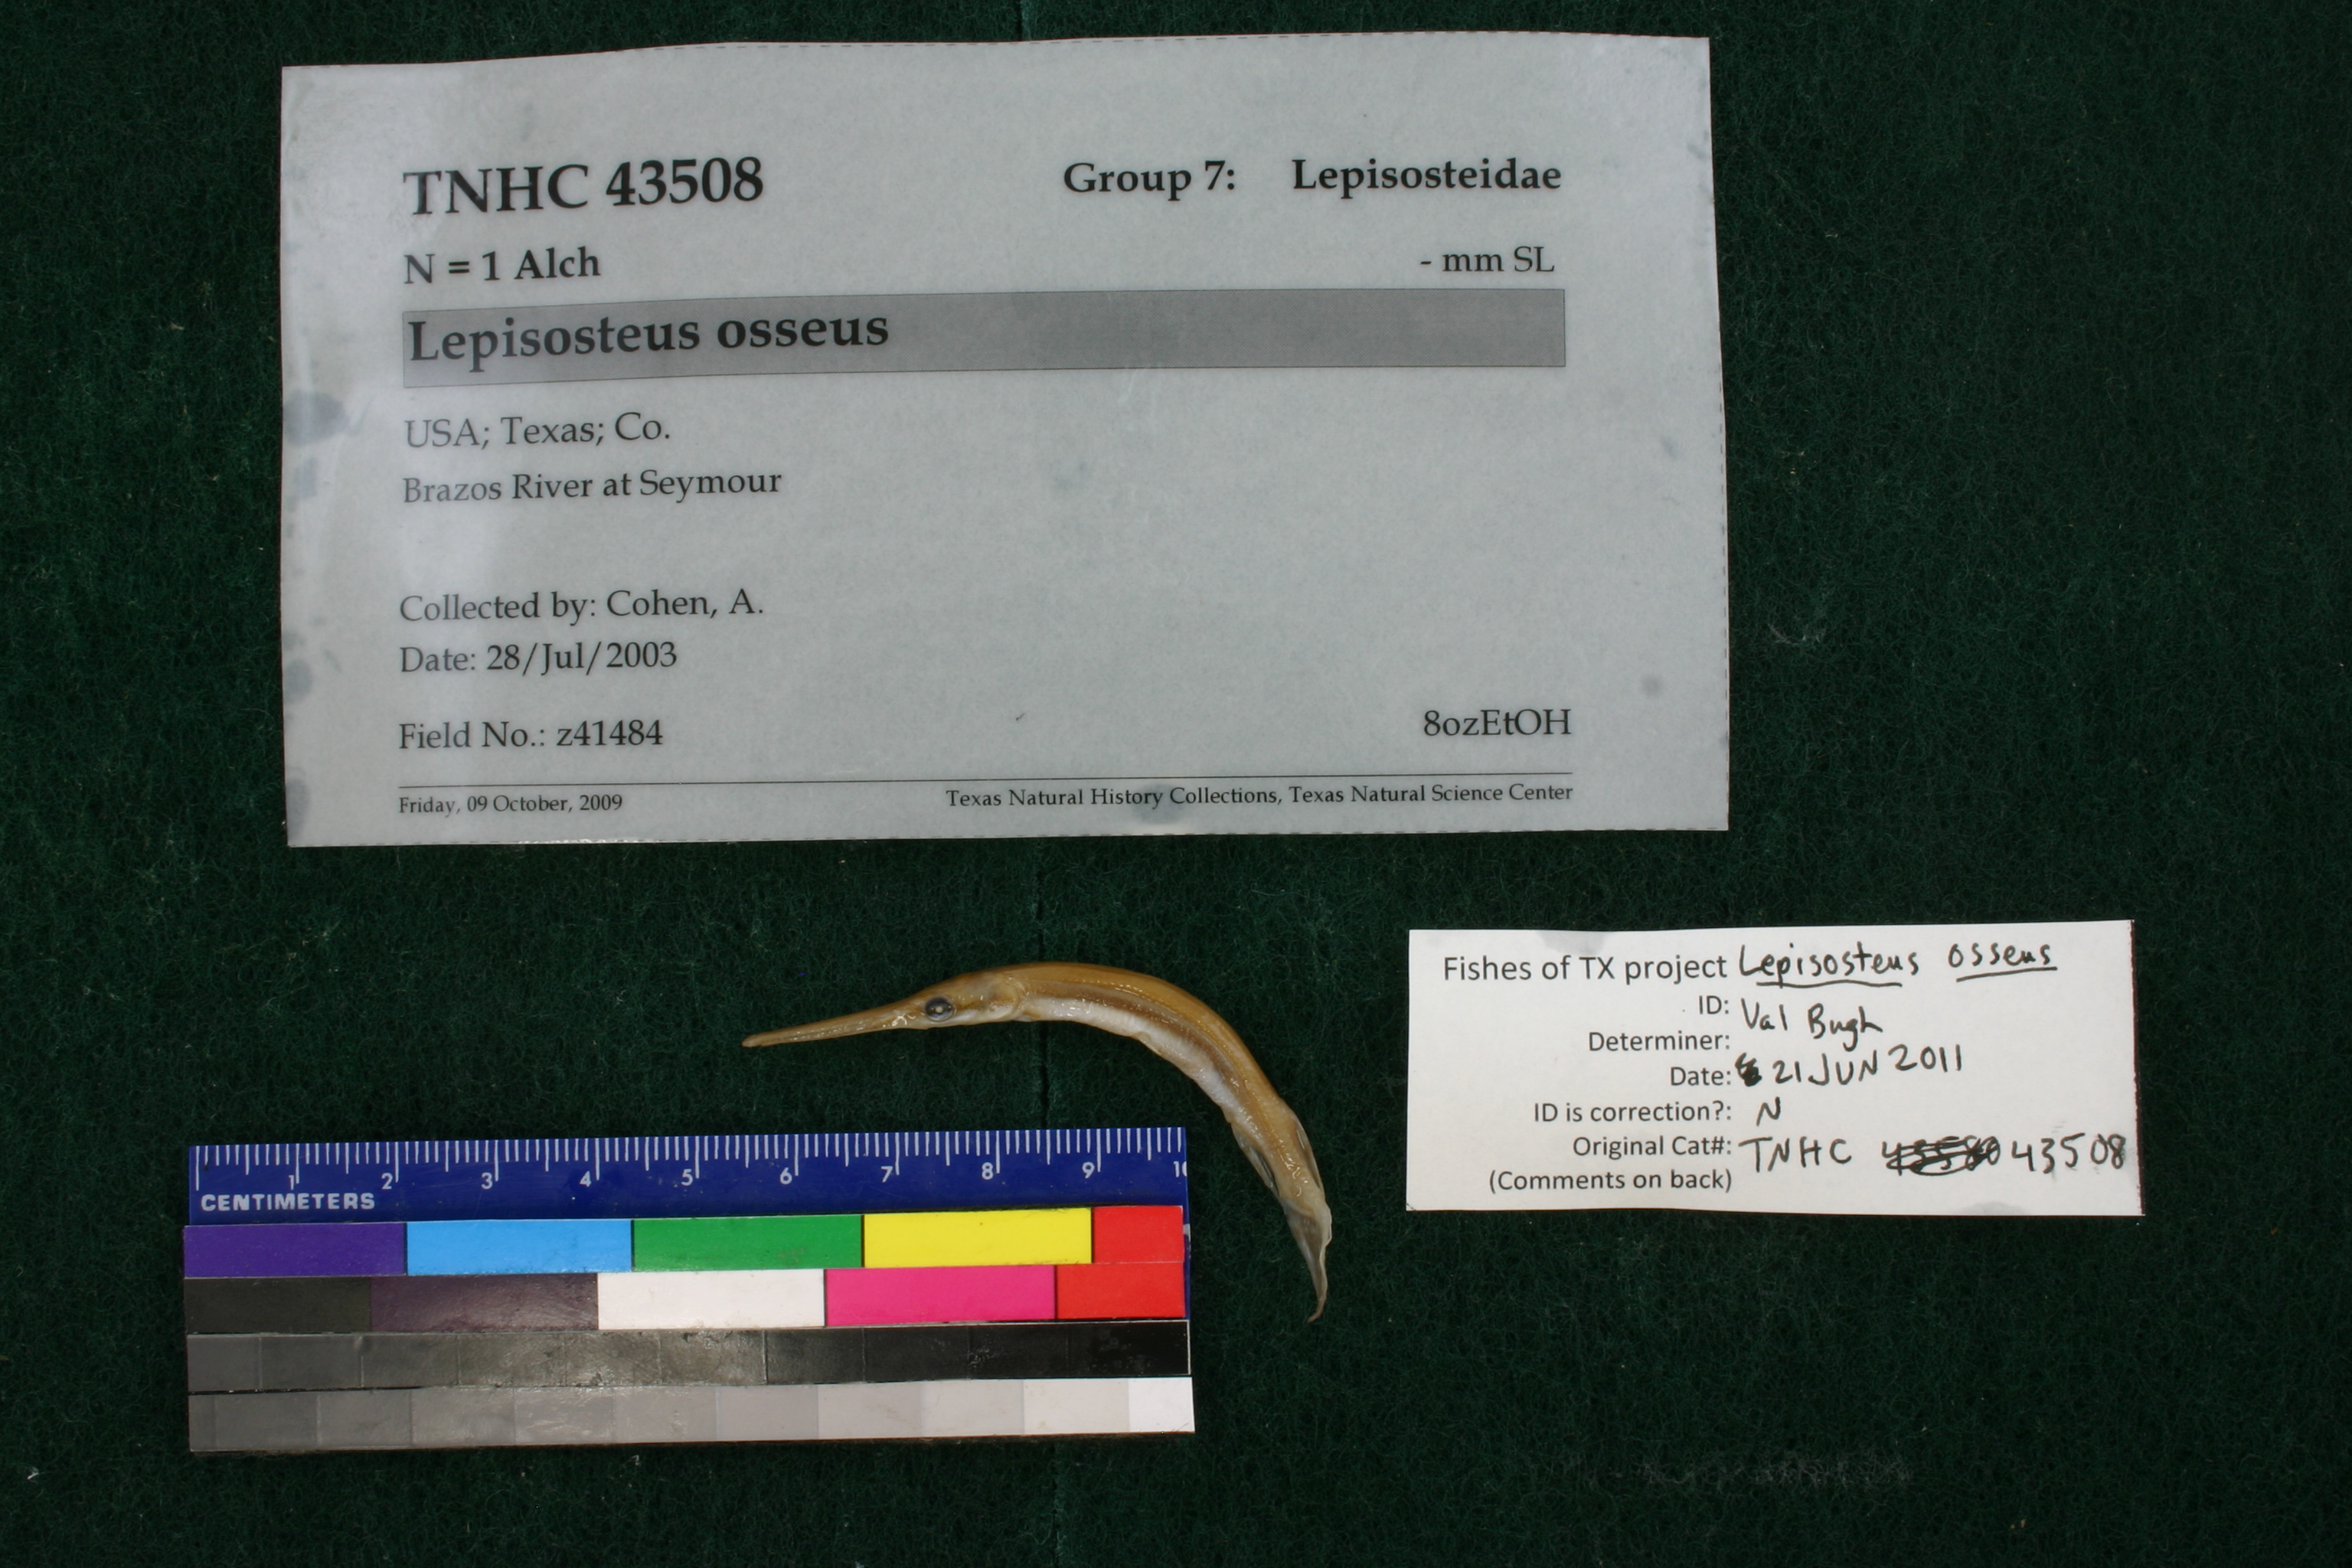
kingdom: Animalia
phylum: Chordata
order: Lepisosteiformes
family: Lepisosteidae
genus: Lepisosteus
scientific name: Lepisosteus osseus
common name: Longnose gar
